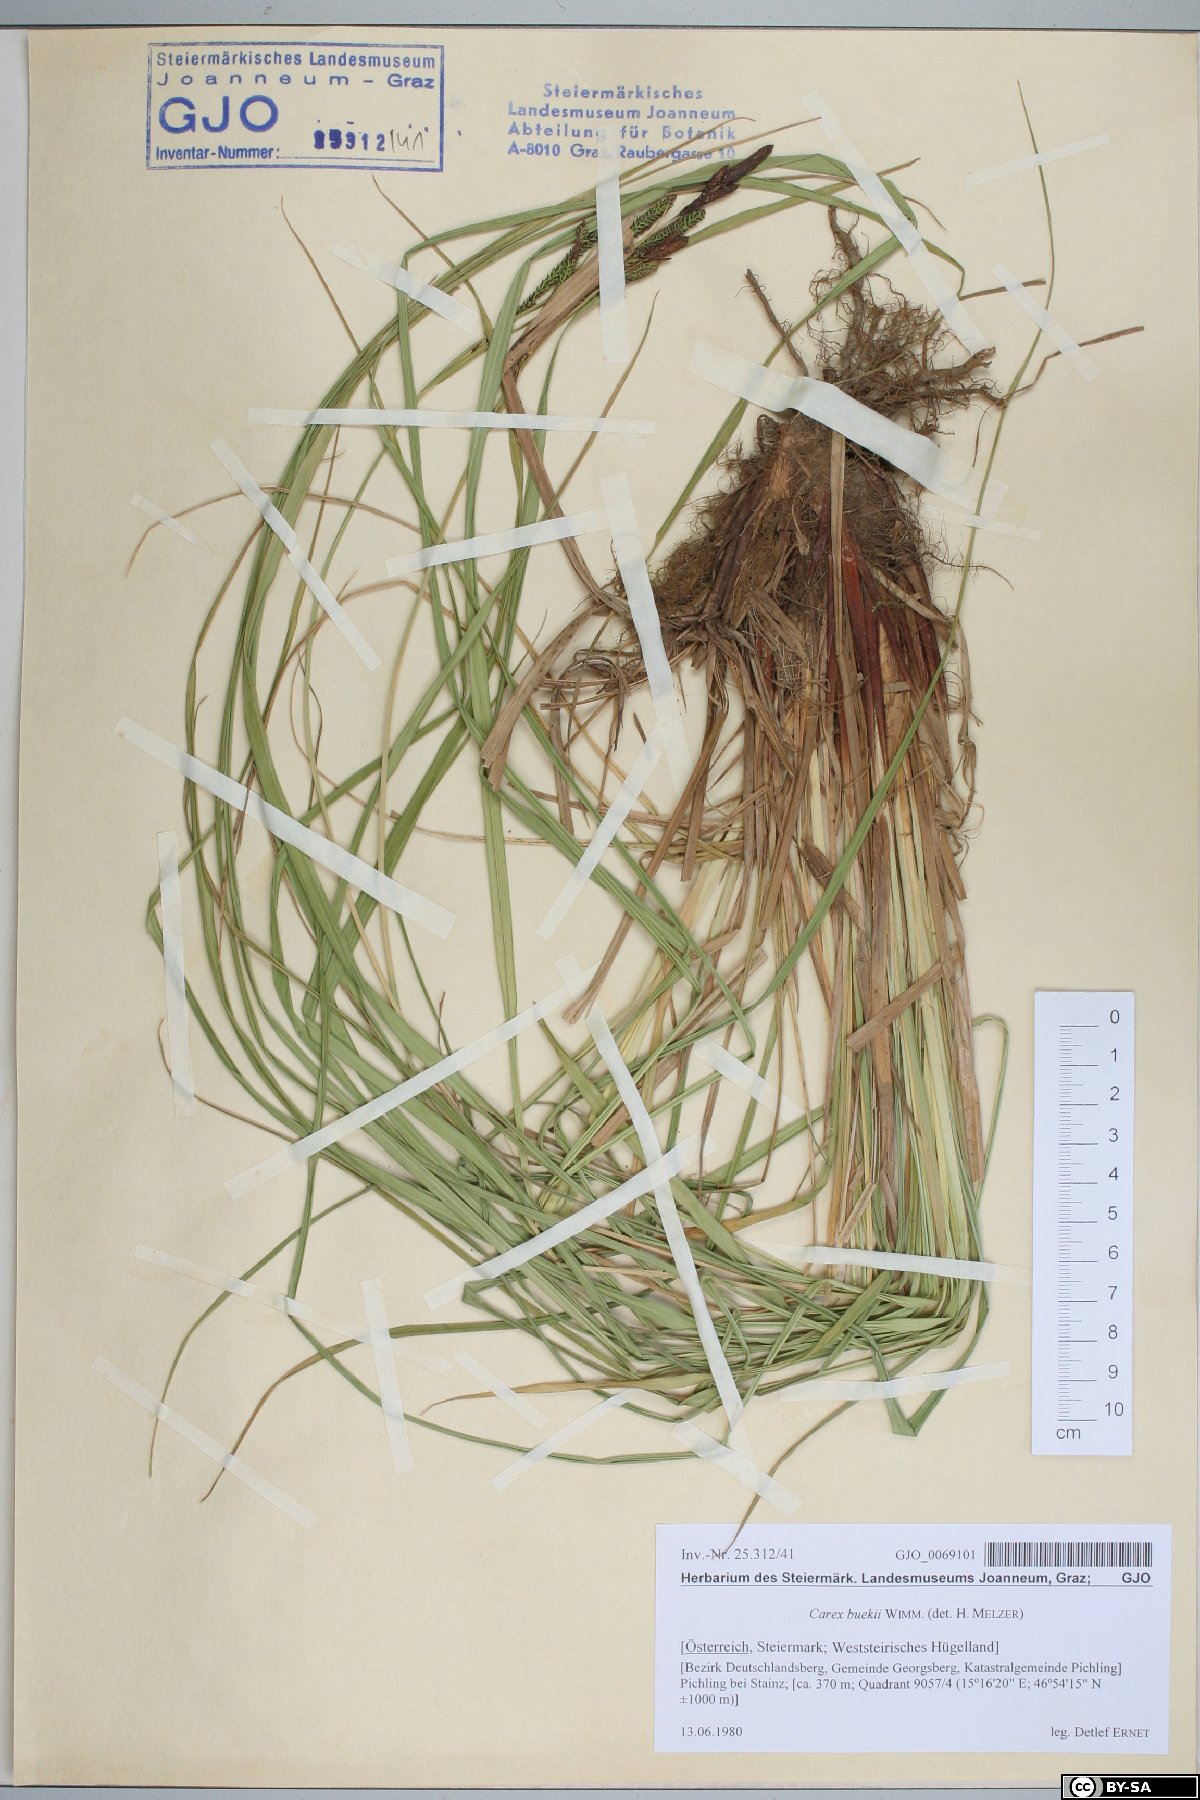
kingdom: Plantae
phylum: Tracheophyta
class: Liliopsida
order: Poales
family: Cyperaceae
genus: Carex
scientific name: Carex buekii
